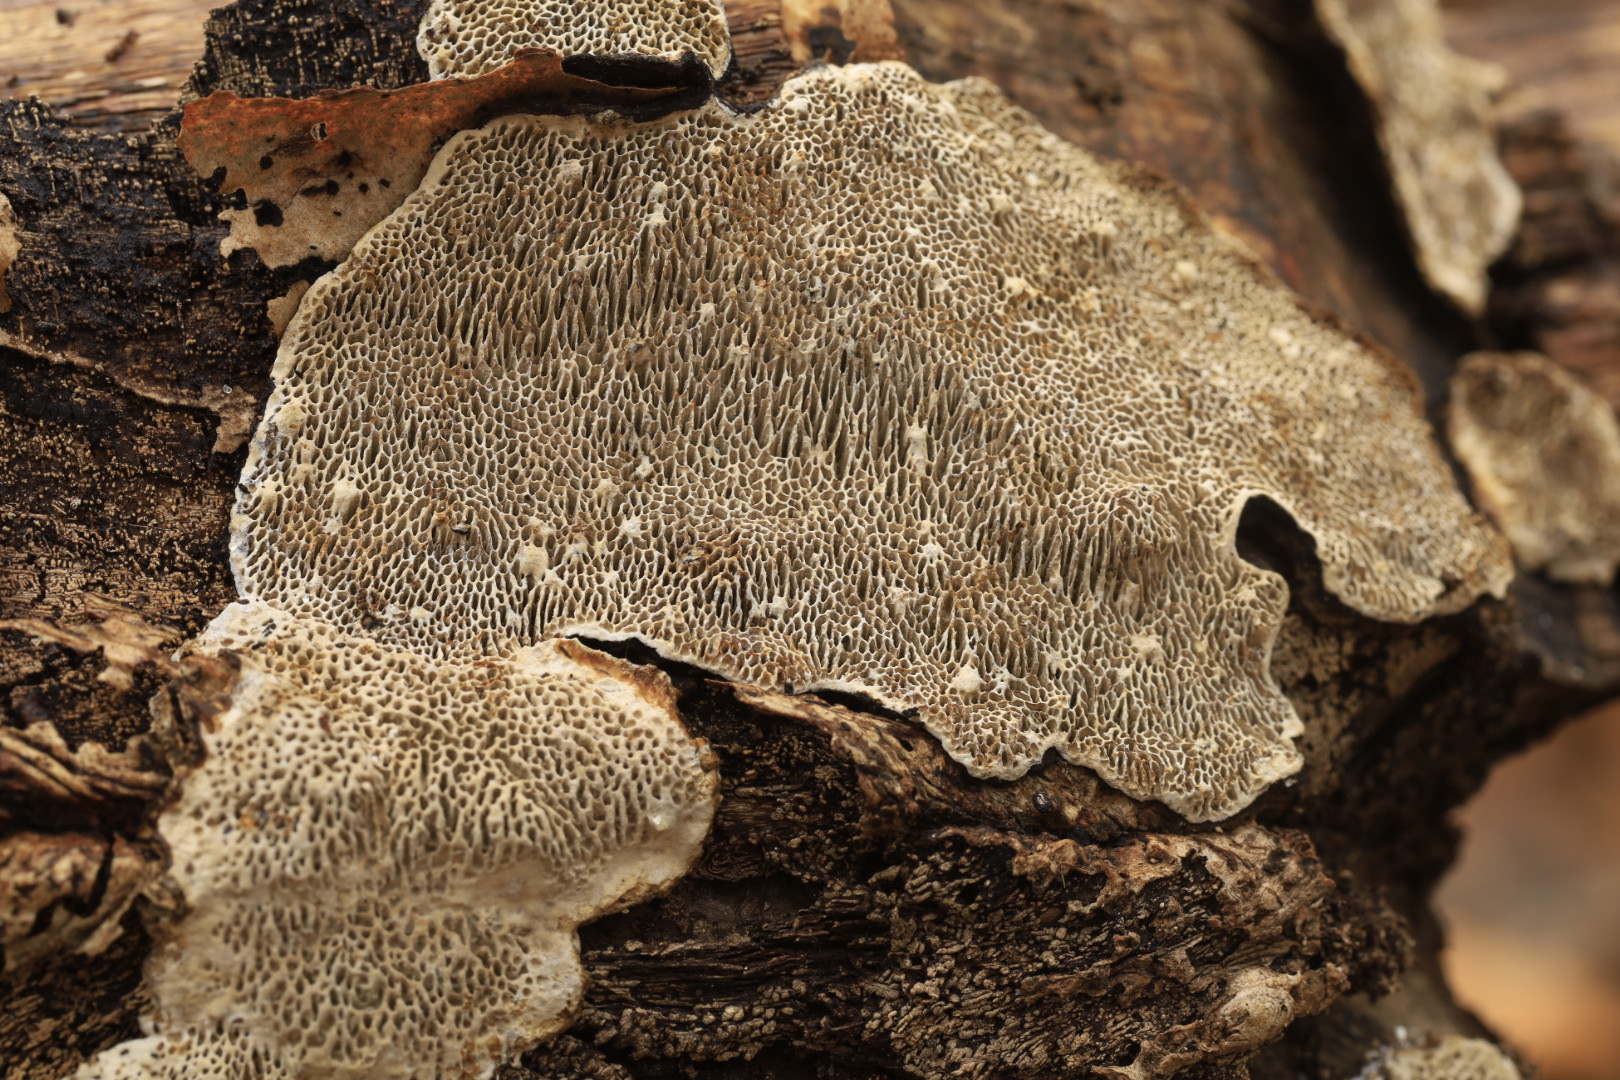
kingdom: Fungi
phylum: Basidiomycota
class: Agaricomycetes
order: Polyporales
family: Polyporaceae
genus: Podofomes
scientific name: Podofomes mollis
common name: blød begporesvamp
